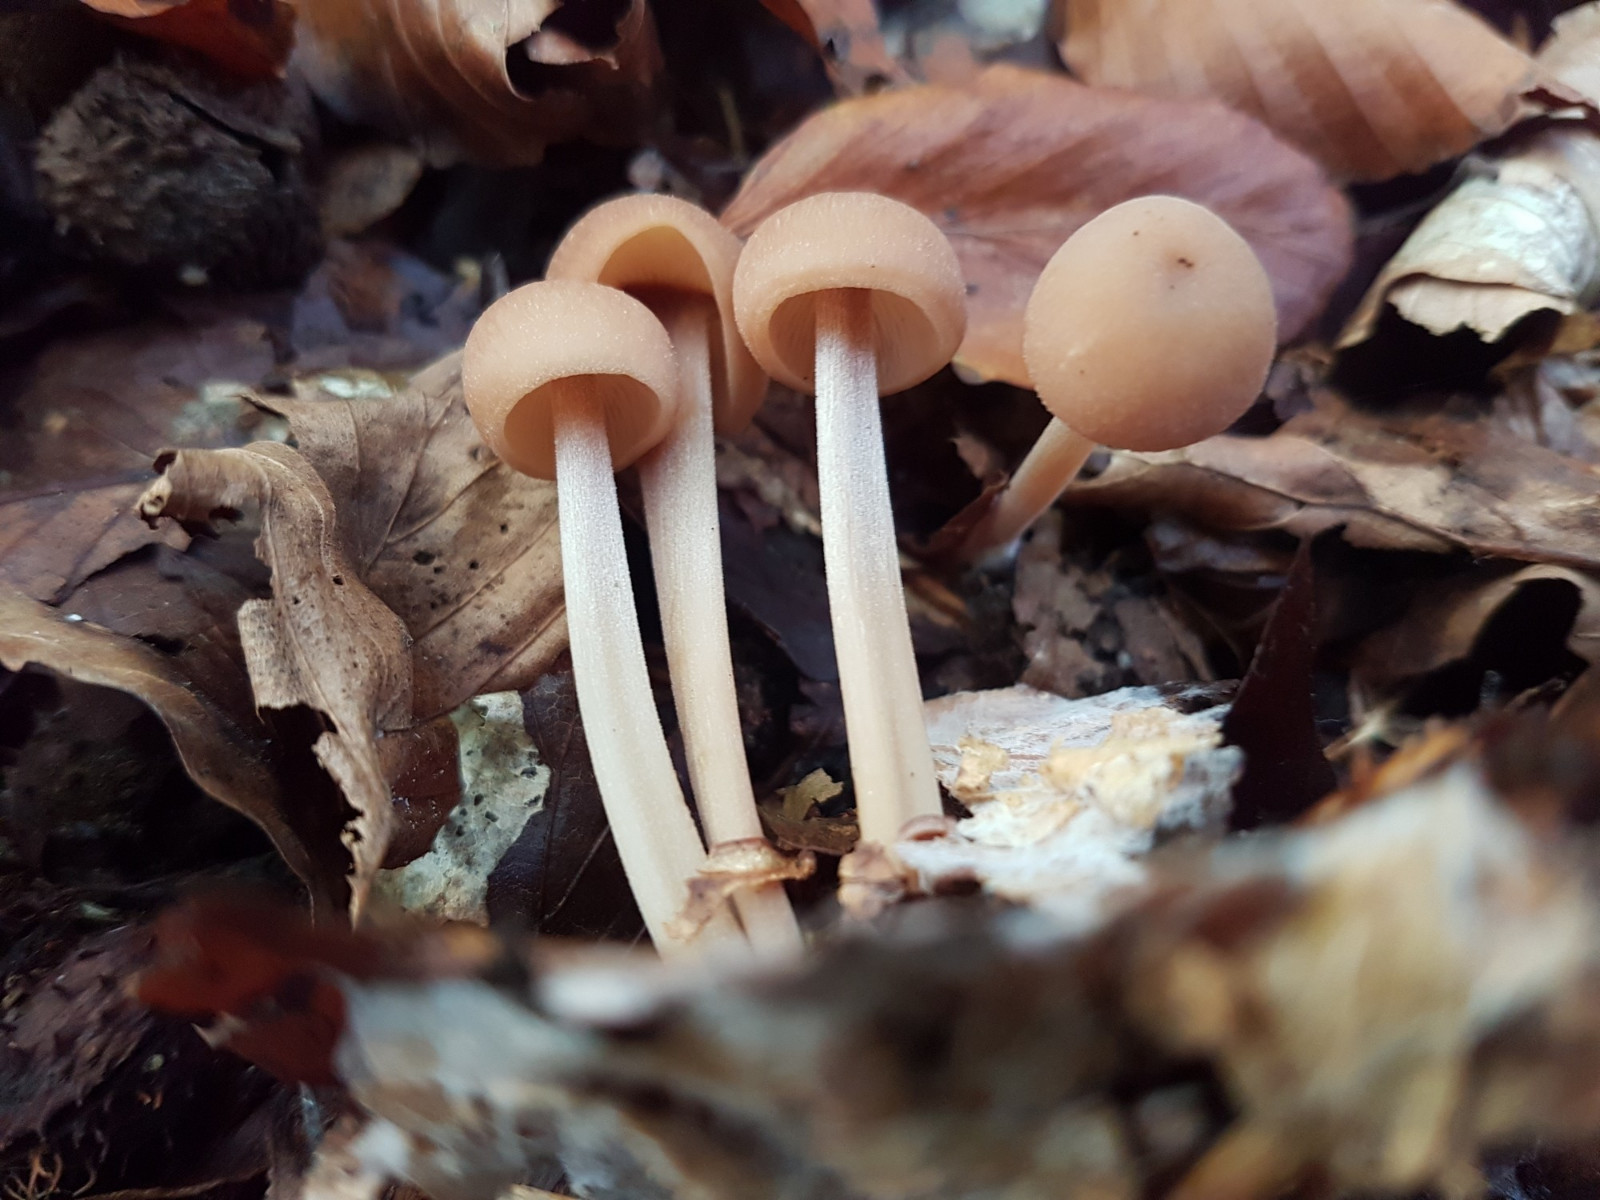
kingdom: Fungi
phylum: Basidiomycota
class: Agaricomycetes
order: Agaricales
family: Omphalotaceae
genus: Collybiopsis
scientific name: Collybiopsis confluens
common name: knippe-fladhat
